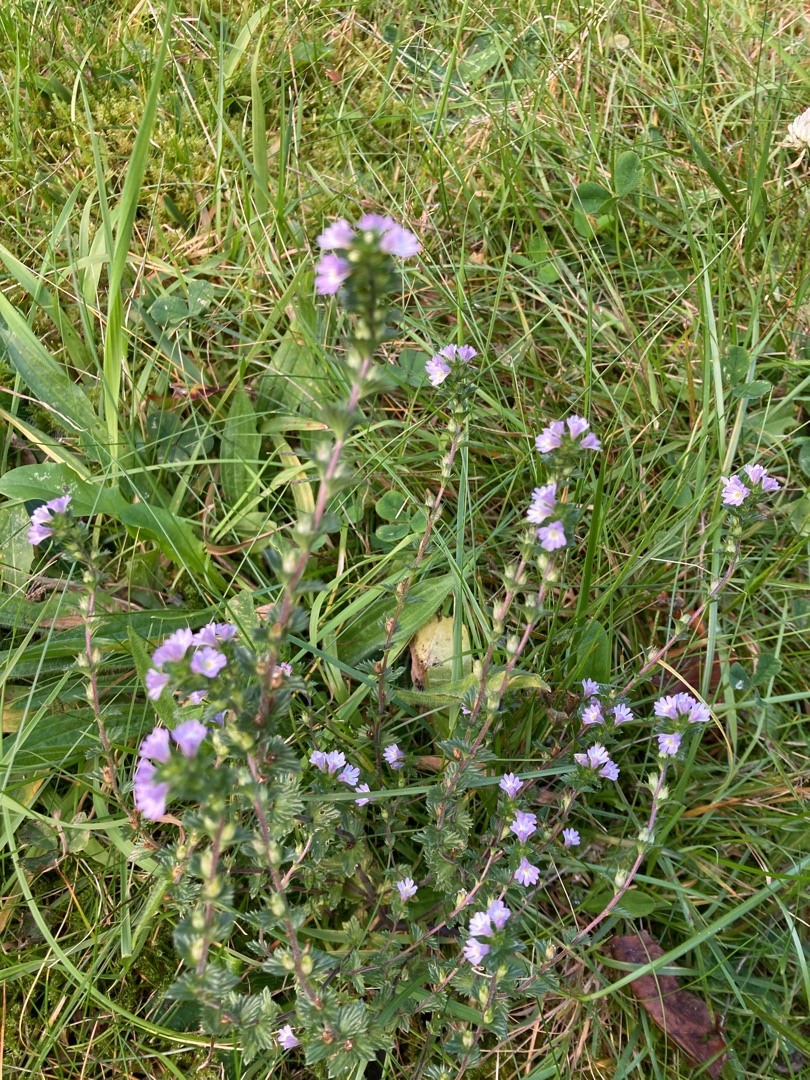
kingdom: Plantae
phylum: Tracheophyta
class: Magnoliopsida
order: Lamiales
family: Orobanchaceae
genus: Euphrasia
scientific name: Euphrasia
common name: Øjentrøstslægten
